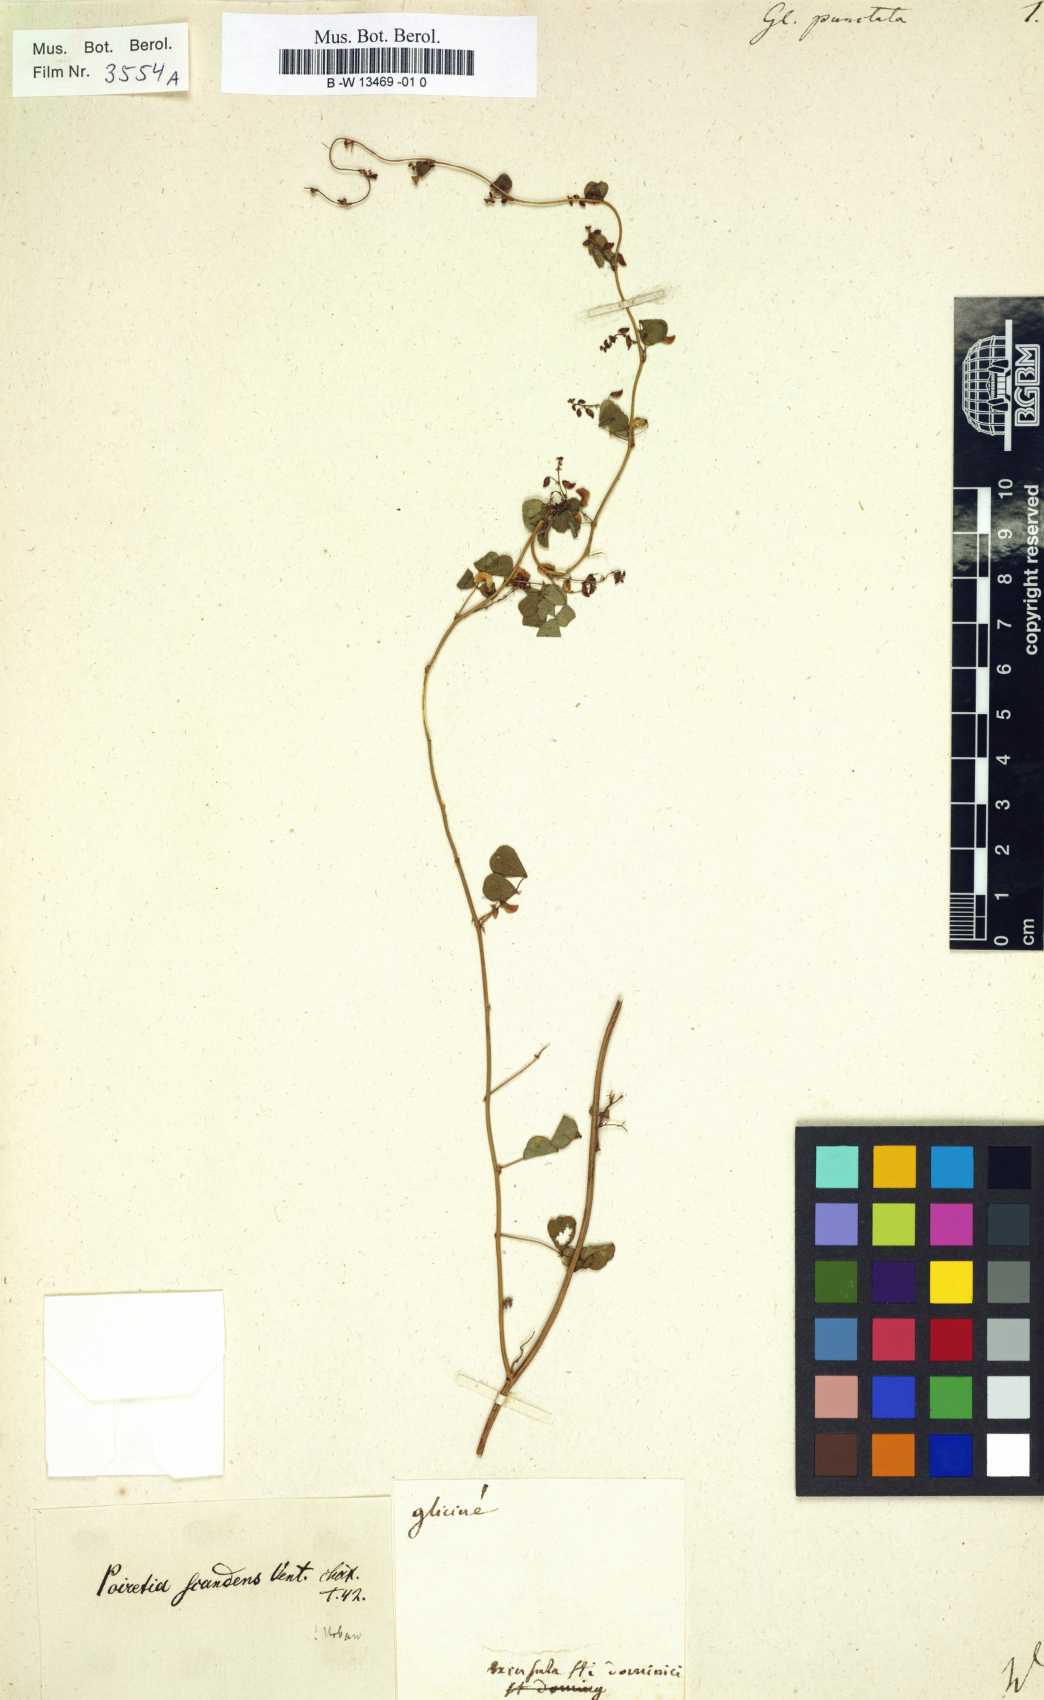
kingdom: Plantae
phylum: Tracheophyta
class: Magnoliopsida
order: Fabales
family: Fabaceae
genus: Poiretia
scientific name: Poiretia punctata
